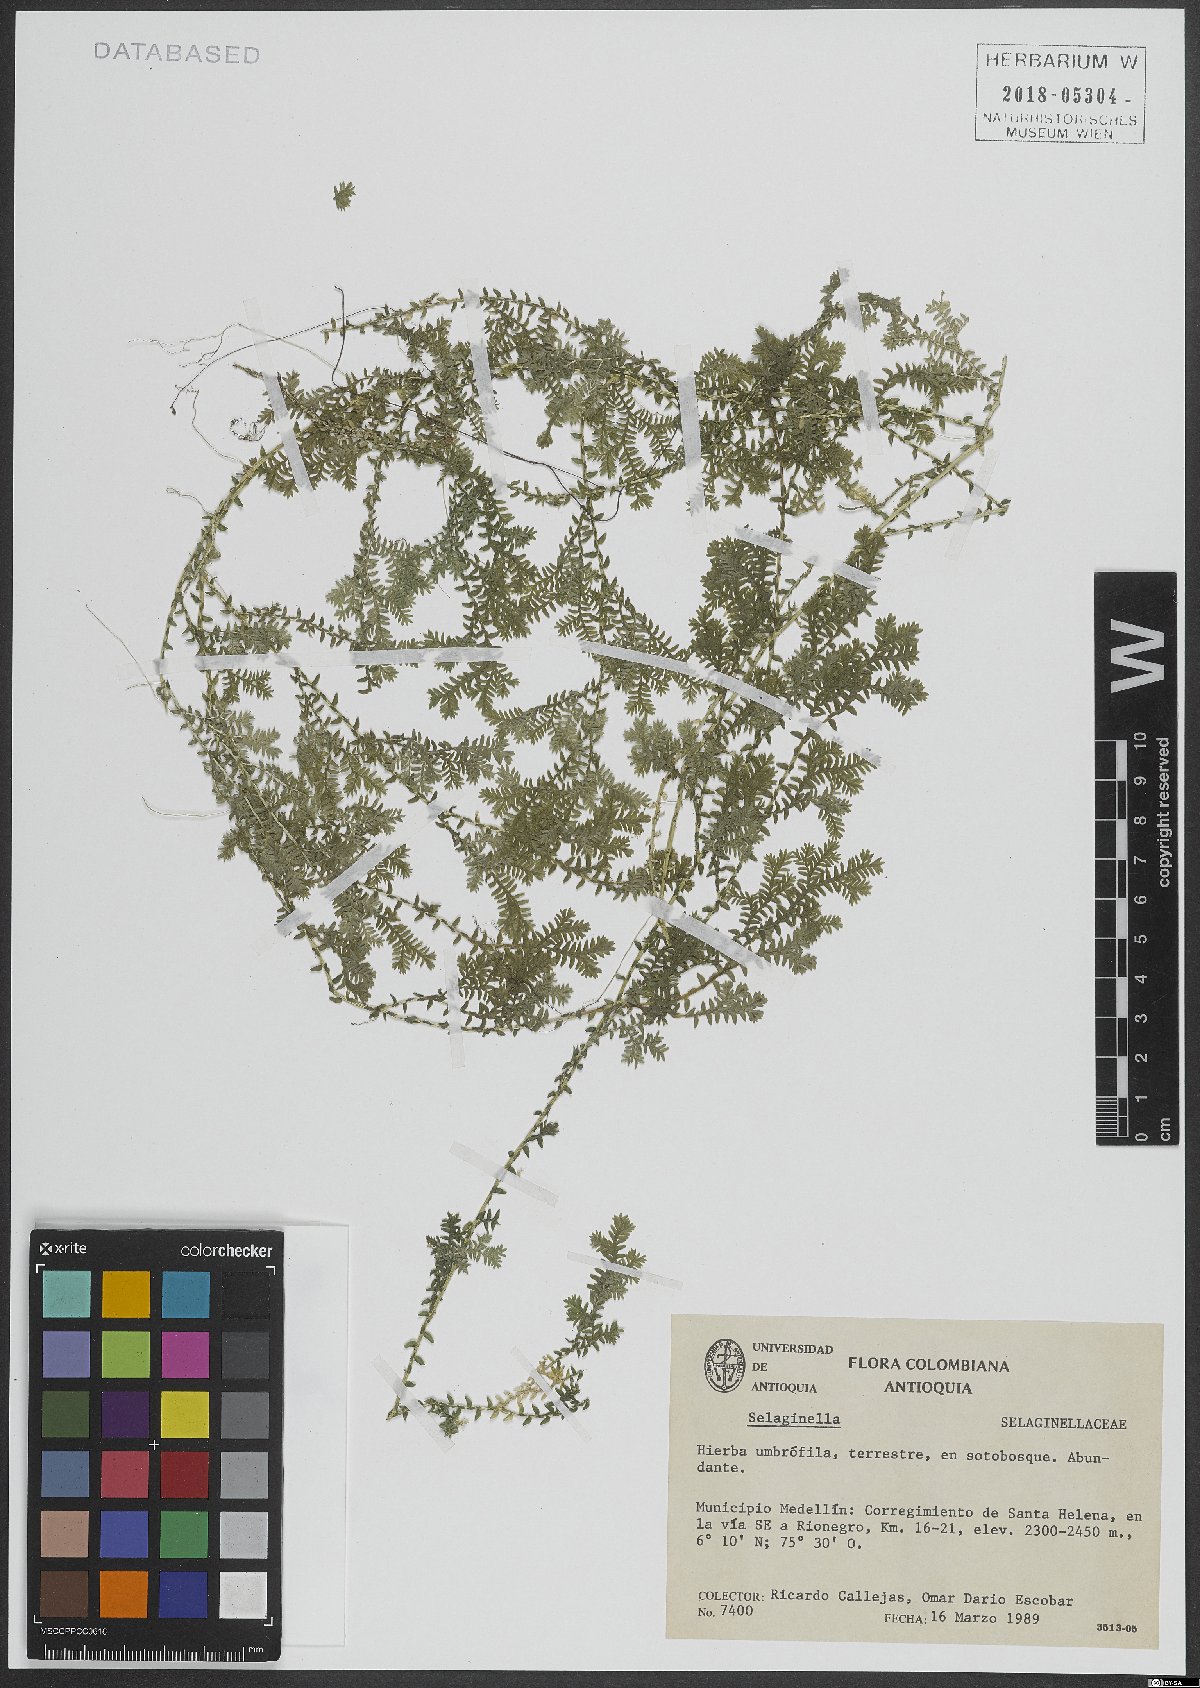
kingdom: Plantae
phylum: Tracheophyta
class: Lycopodiopsida
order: Selaginellales
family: Selaginellaceae
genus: Selaginella
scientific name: Selaginella
